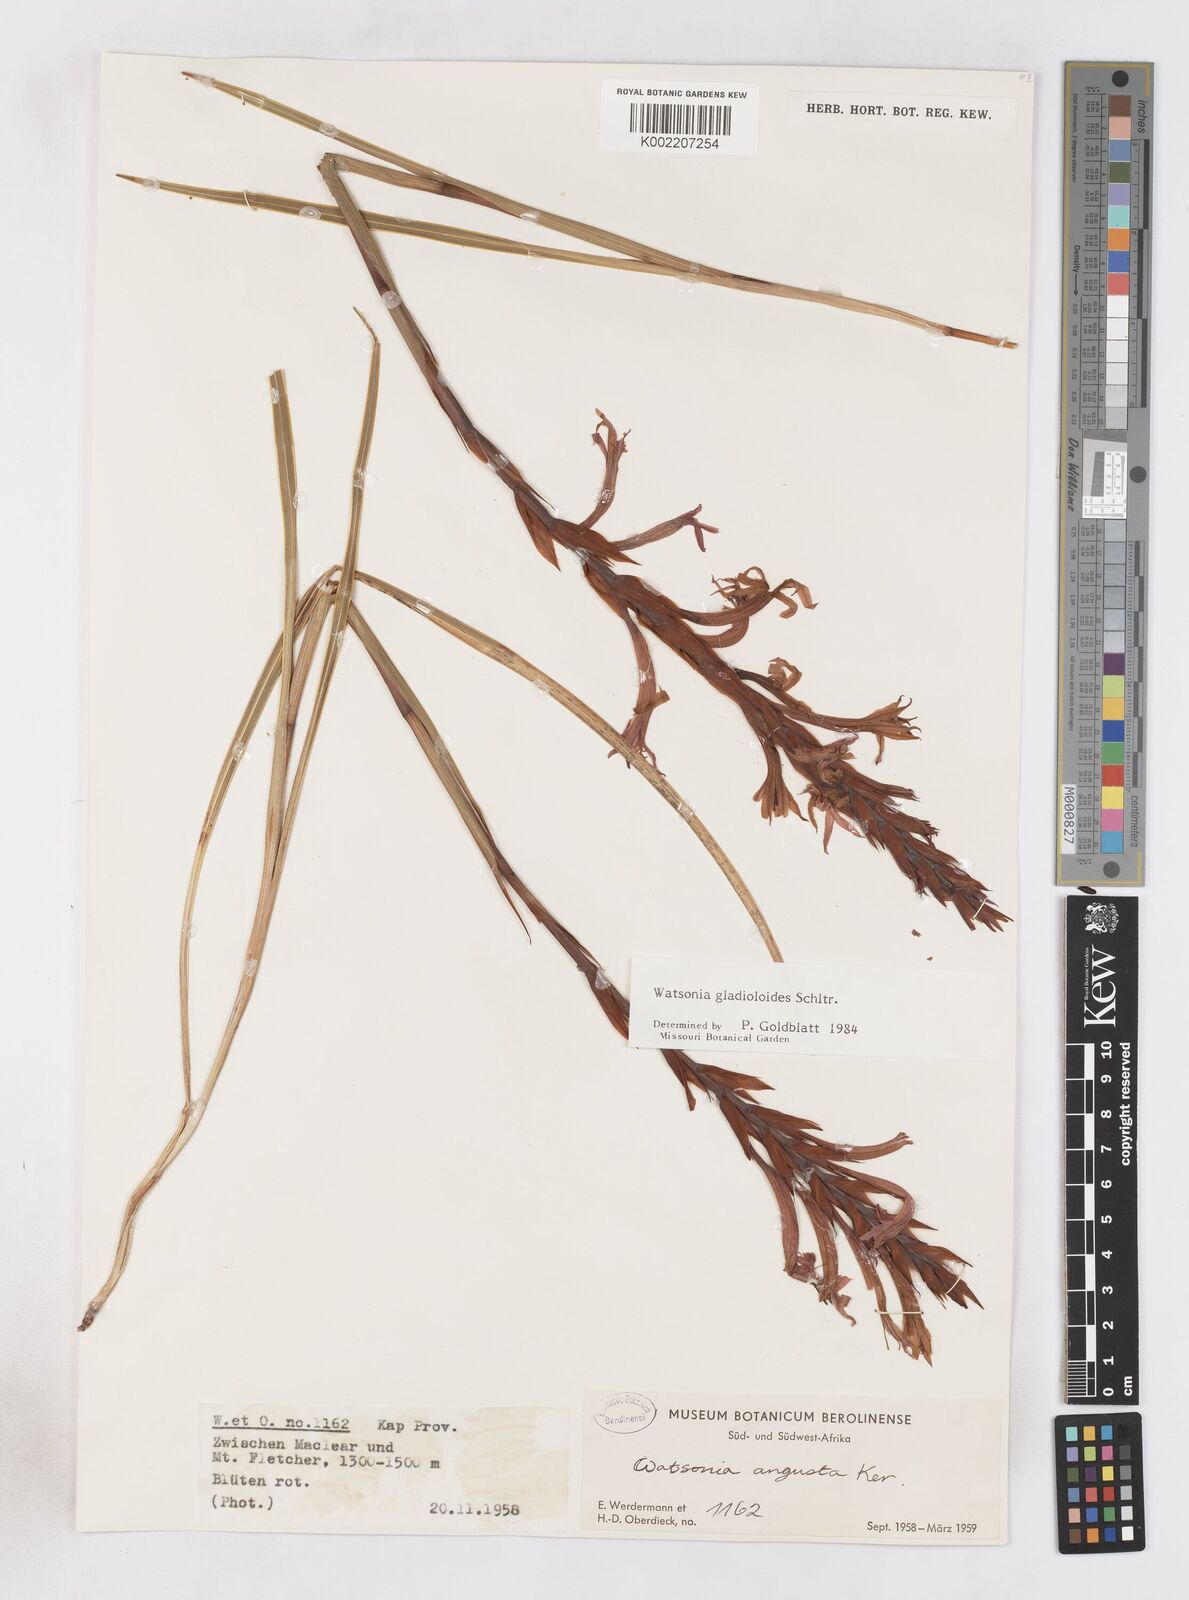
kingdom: Plantae
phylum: Tracheophyta
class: Liliopsida
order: Asparagales
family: Iridaceae
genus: Watsonia
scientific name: Watsonia gladioloides
